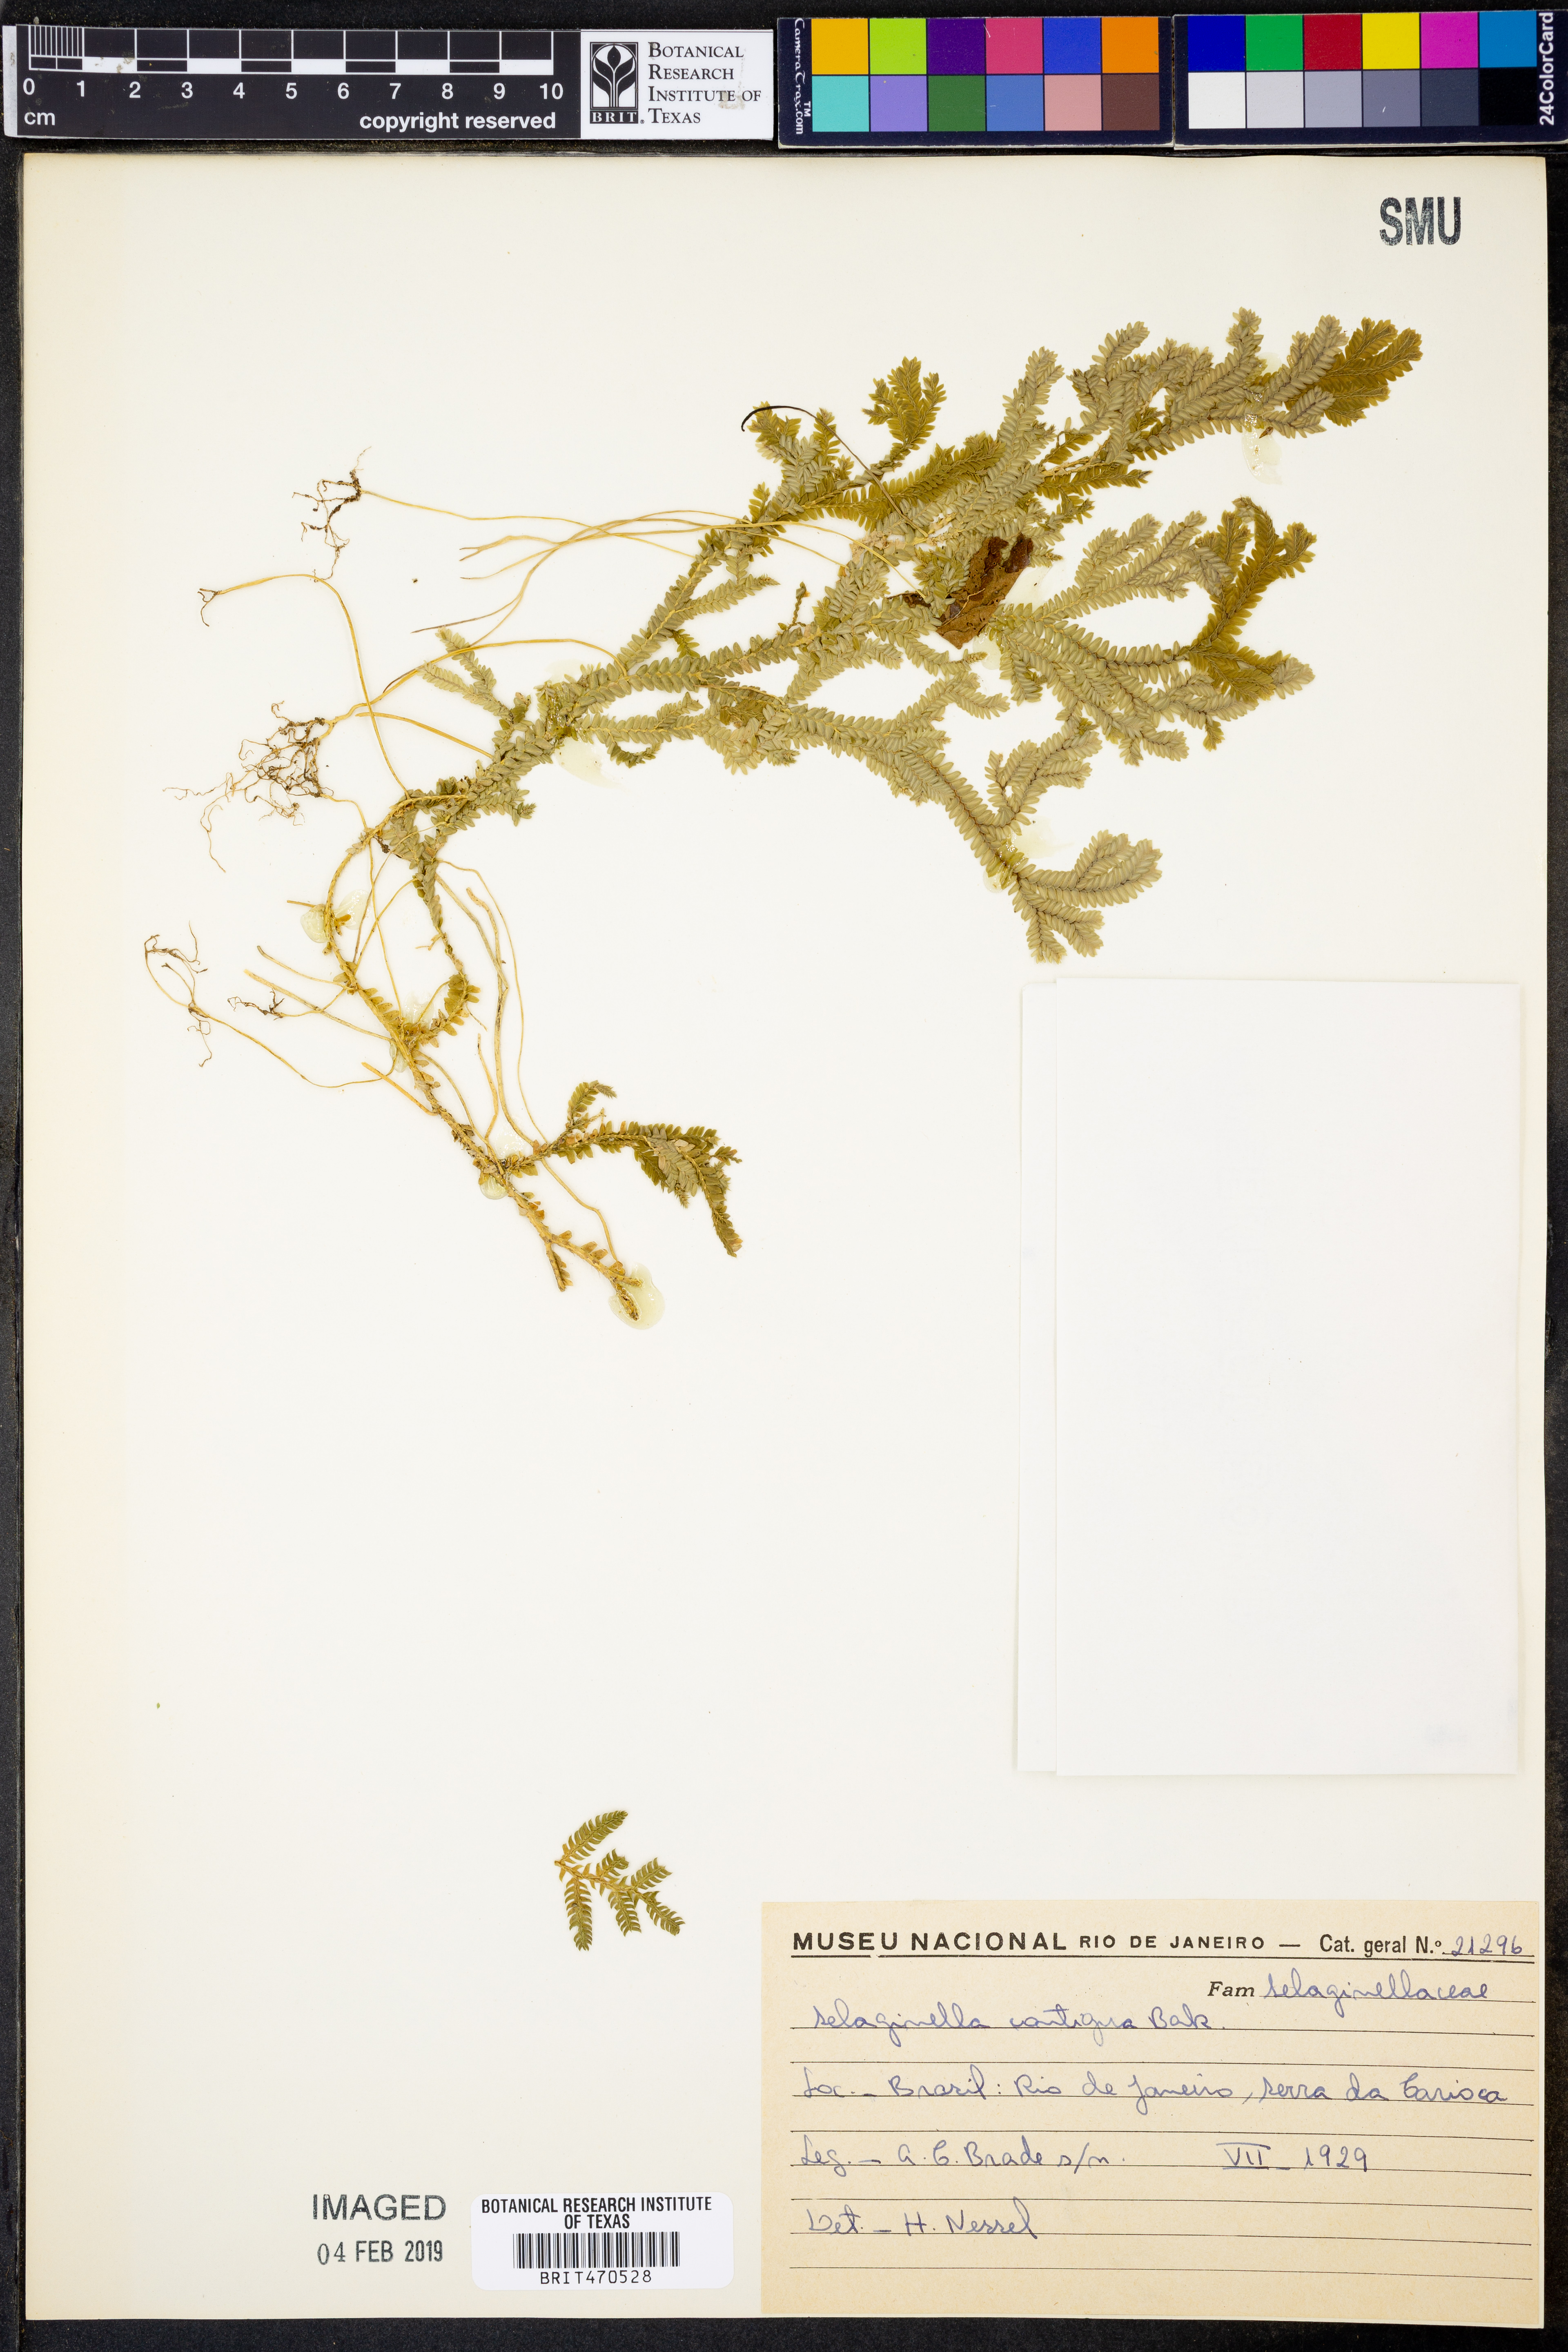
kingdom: Plantae
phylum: Tracheophyta
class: Lycopodiopsida
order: Selaginellales
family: Selaginellaceae
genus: Selaginella
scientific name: Selaginella contigua
